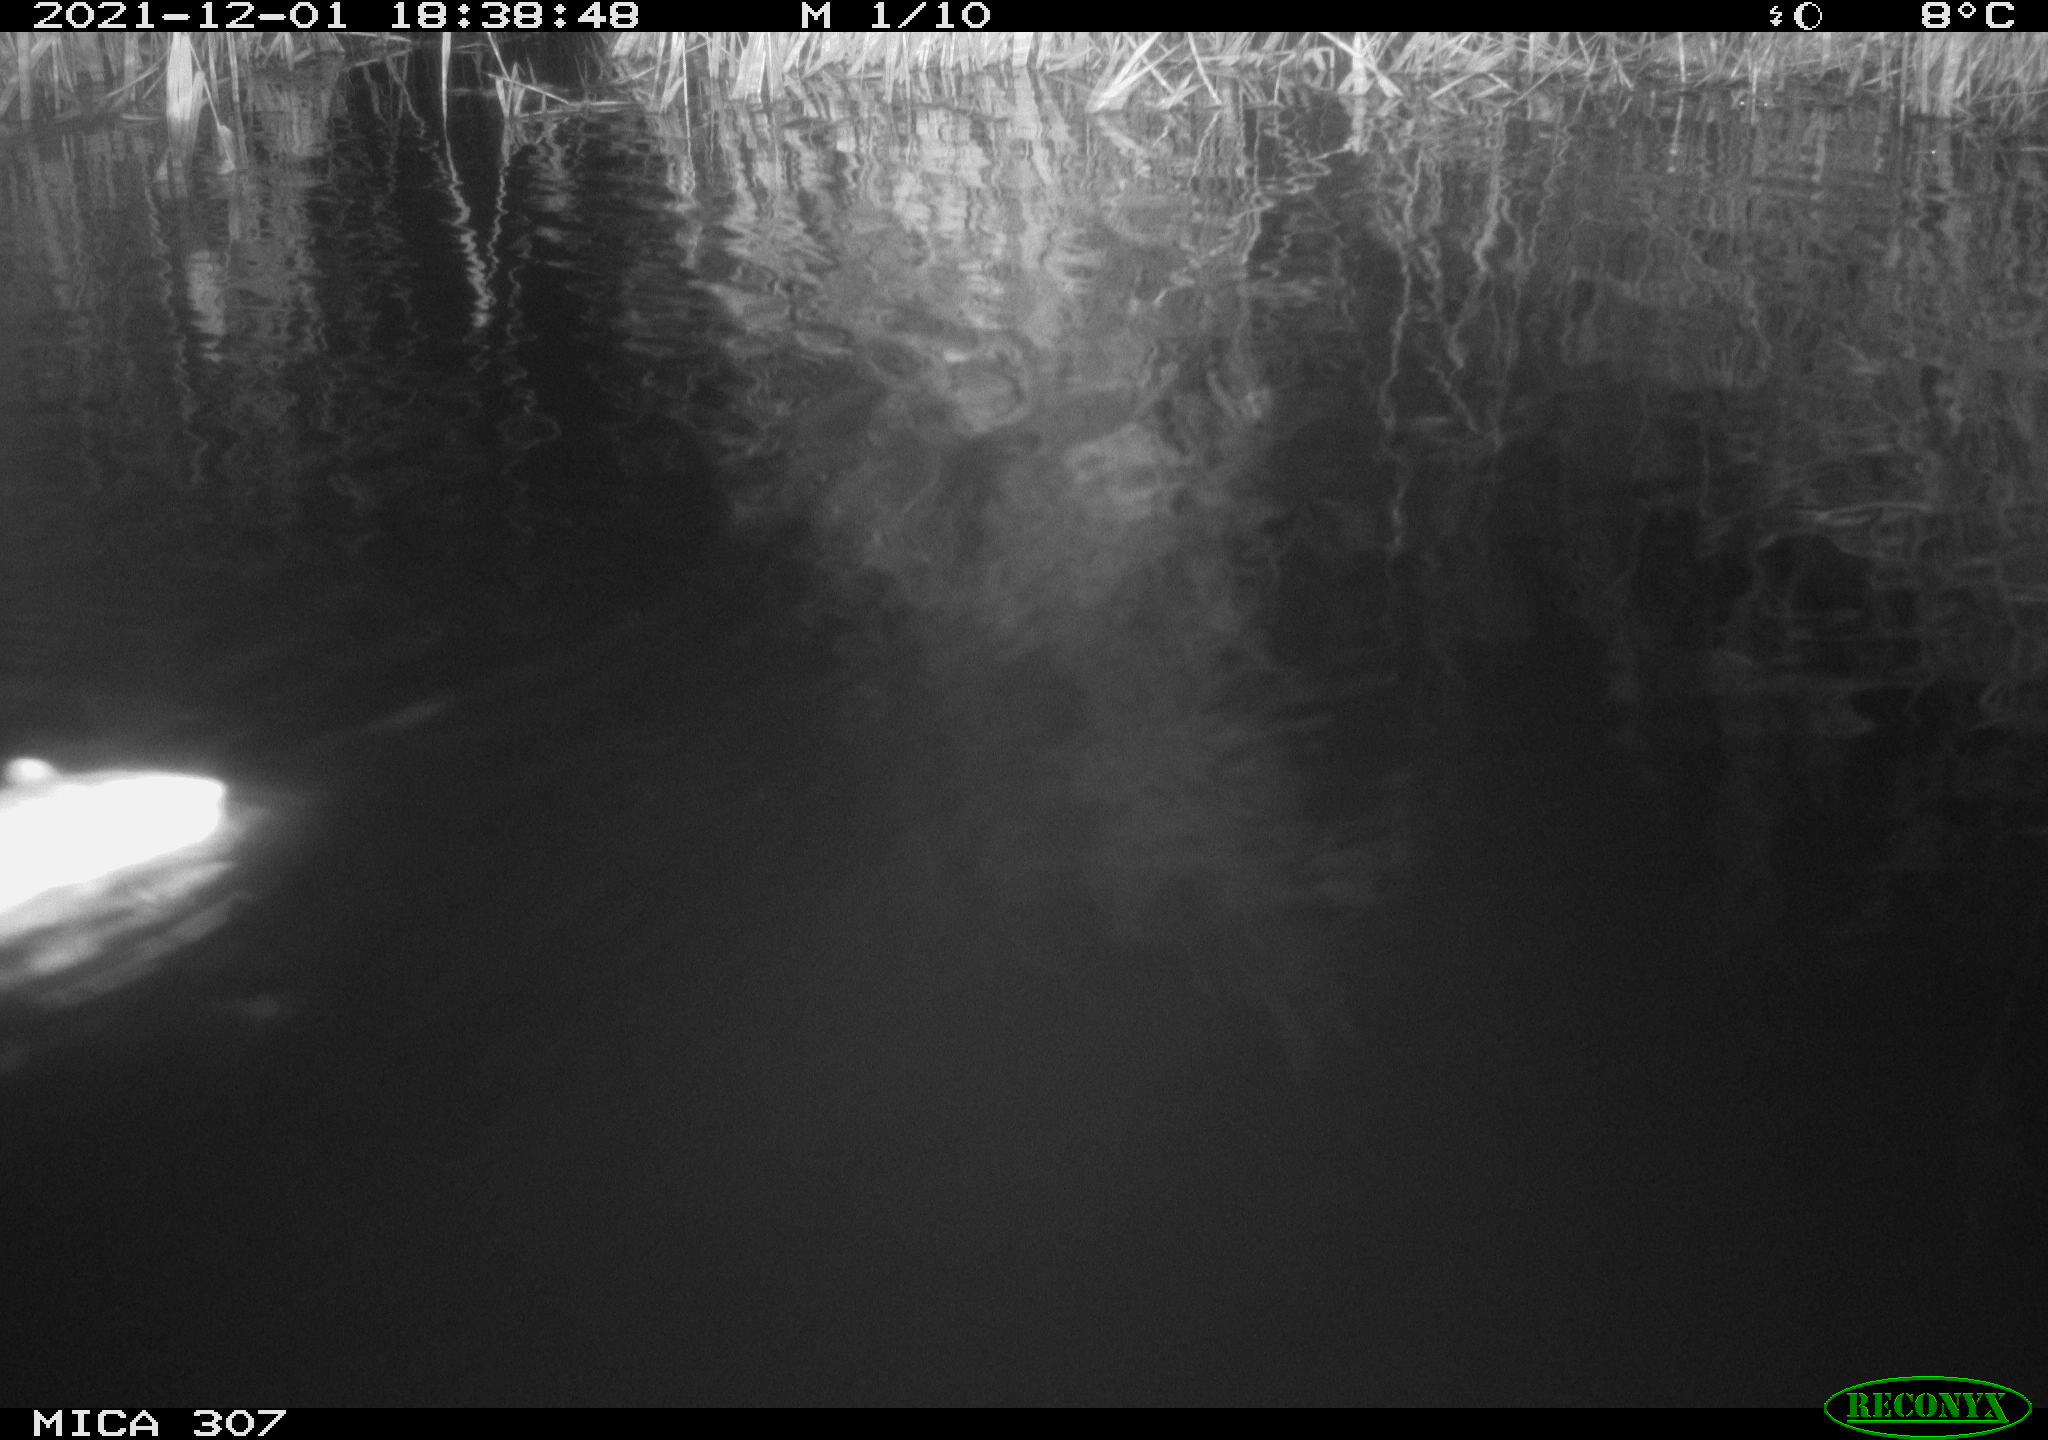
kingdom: Animalia
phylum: Chordata
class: Mammalia
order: Rodentia
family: Muridae
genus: Rattus
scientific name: Rattus norvegicus
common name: Brown rat
